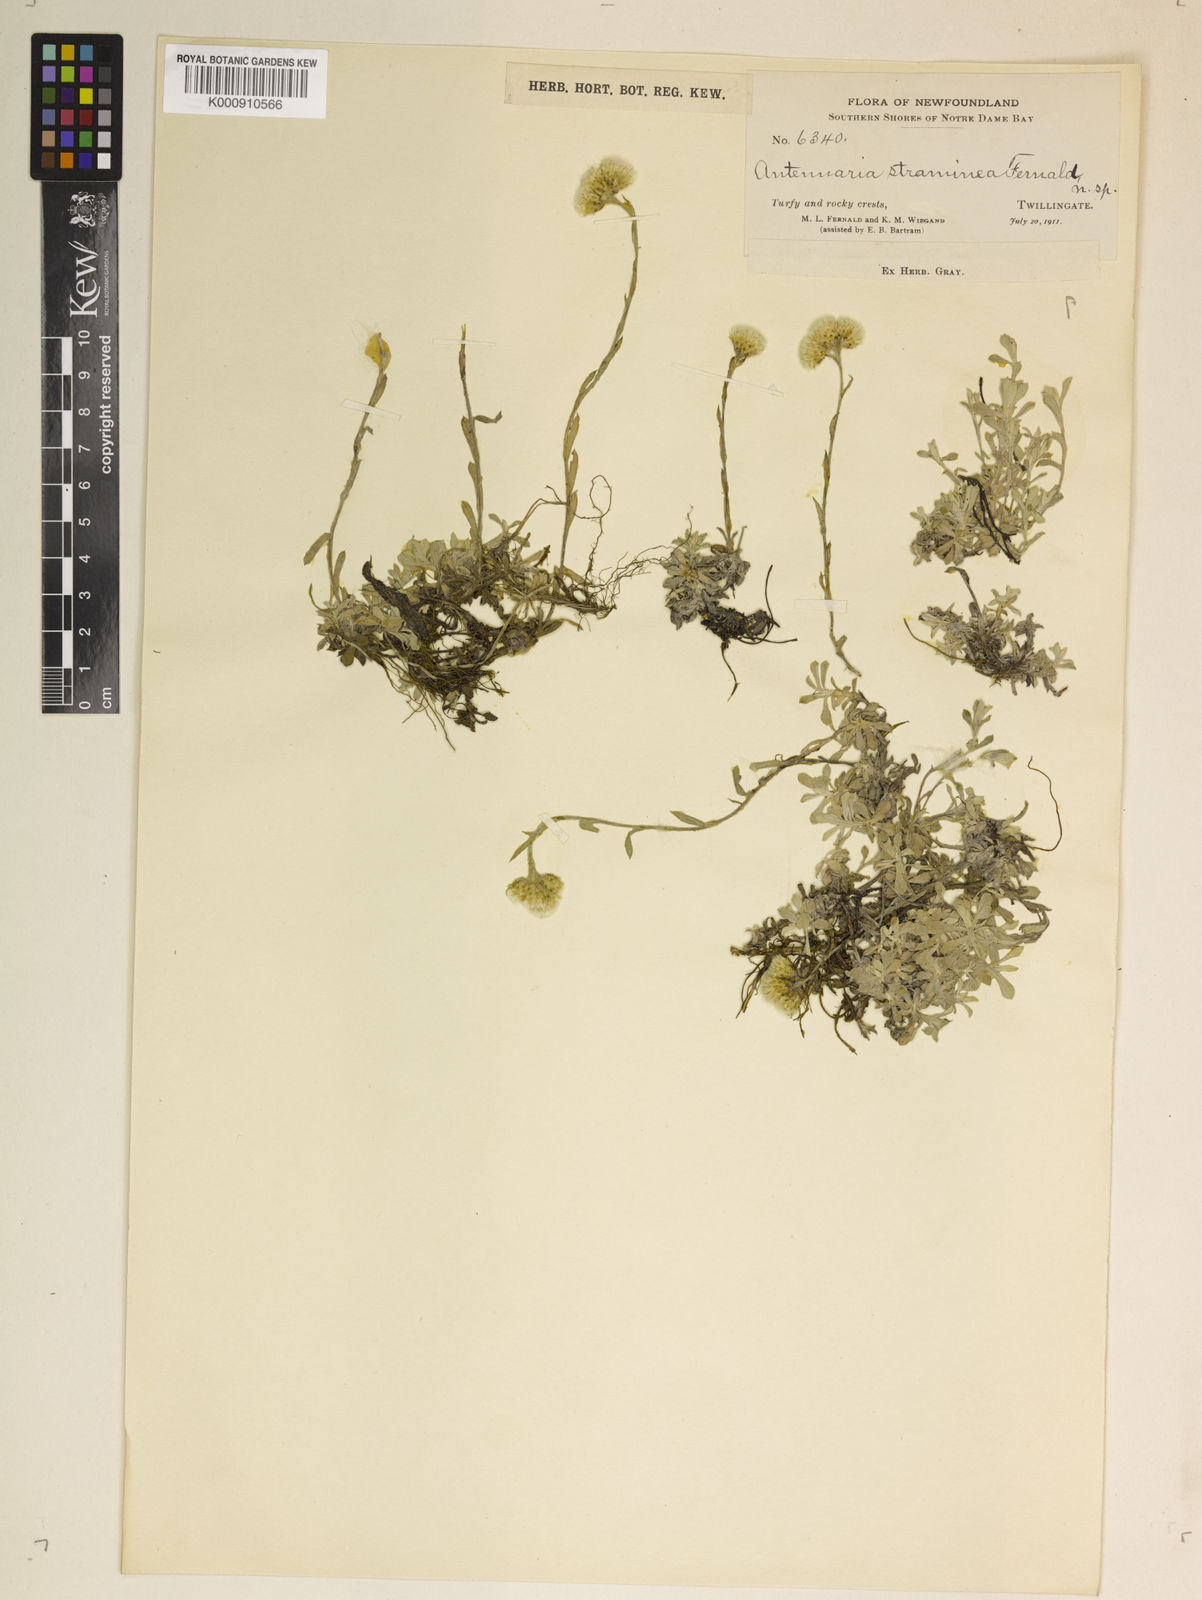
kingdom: Plantae
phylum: Tracheophyta
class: Magnoliopsida
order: Asterales
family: Asteraceae
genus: Antennaria
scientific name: Antennaria rosea
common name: Rosy pussytoes
